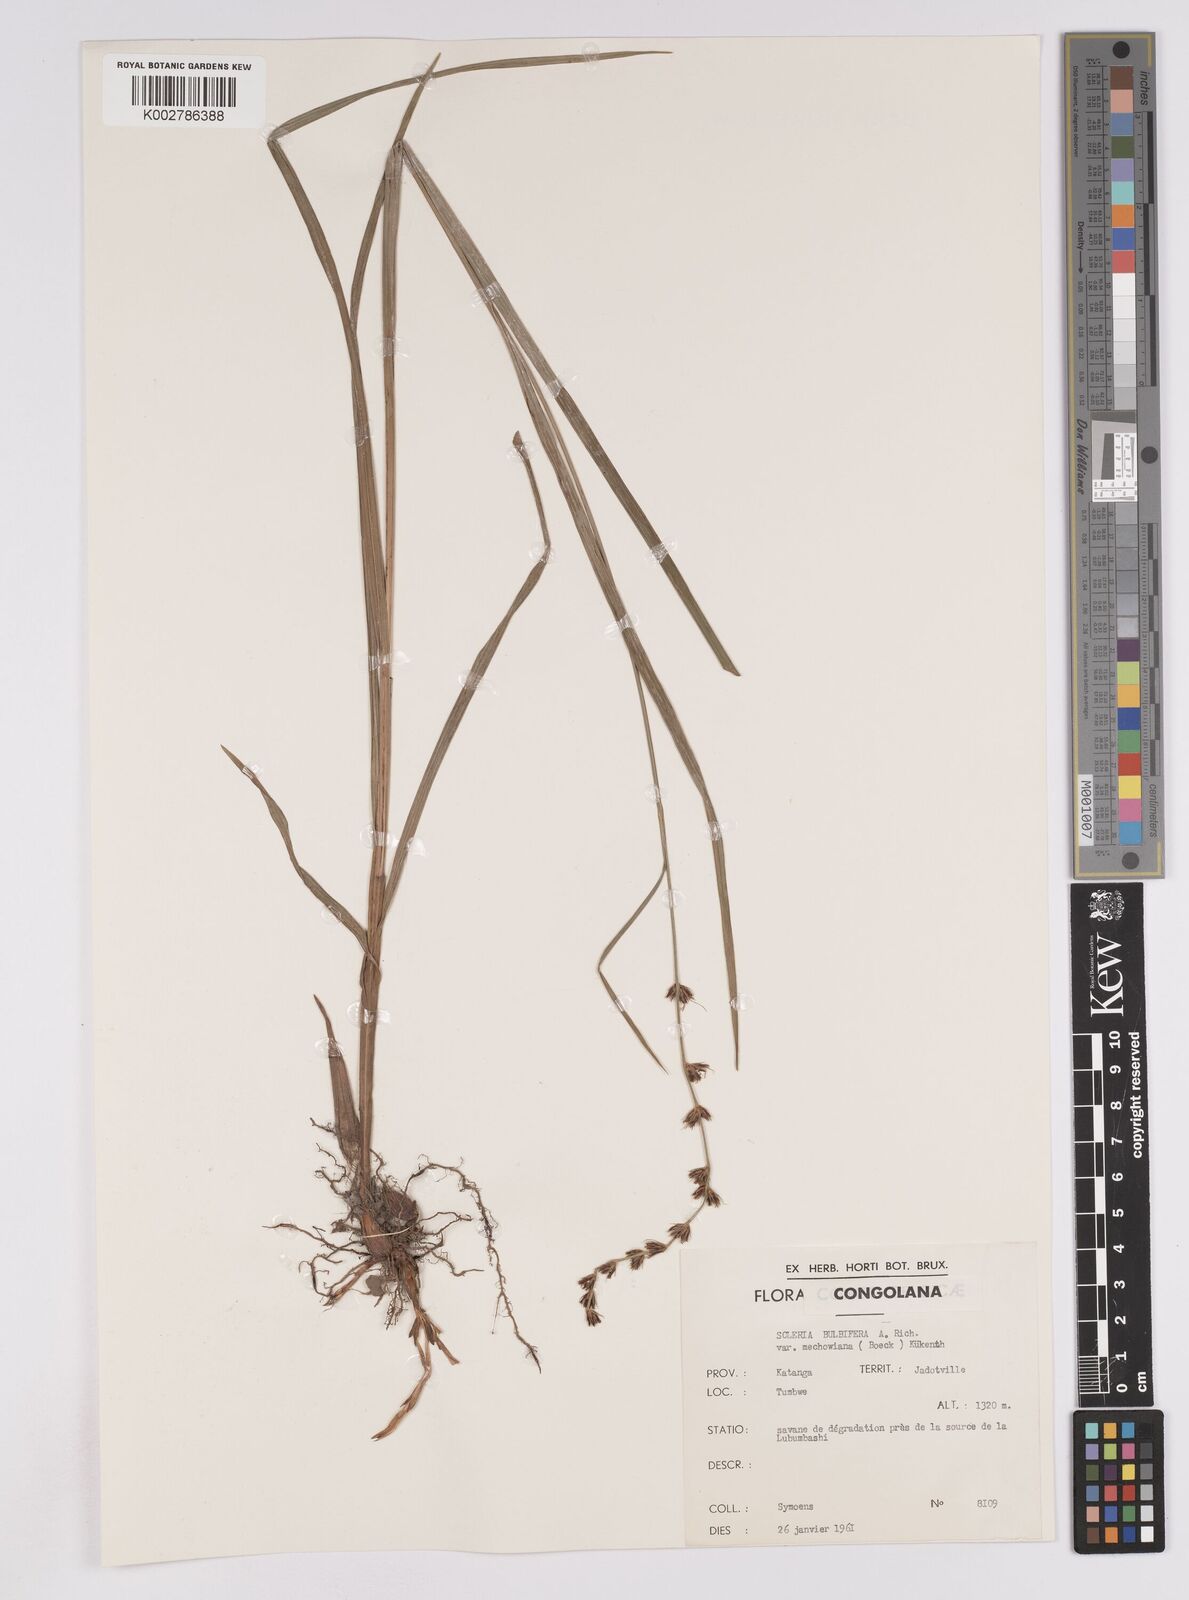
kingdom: Plantae
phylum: Tracheophyta
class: Liliopsida
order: Poales
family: Cyperaceae
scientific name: Cyperaceae
